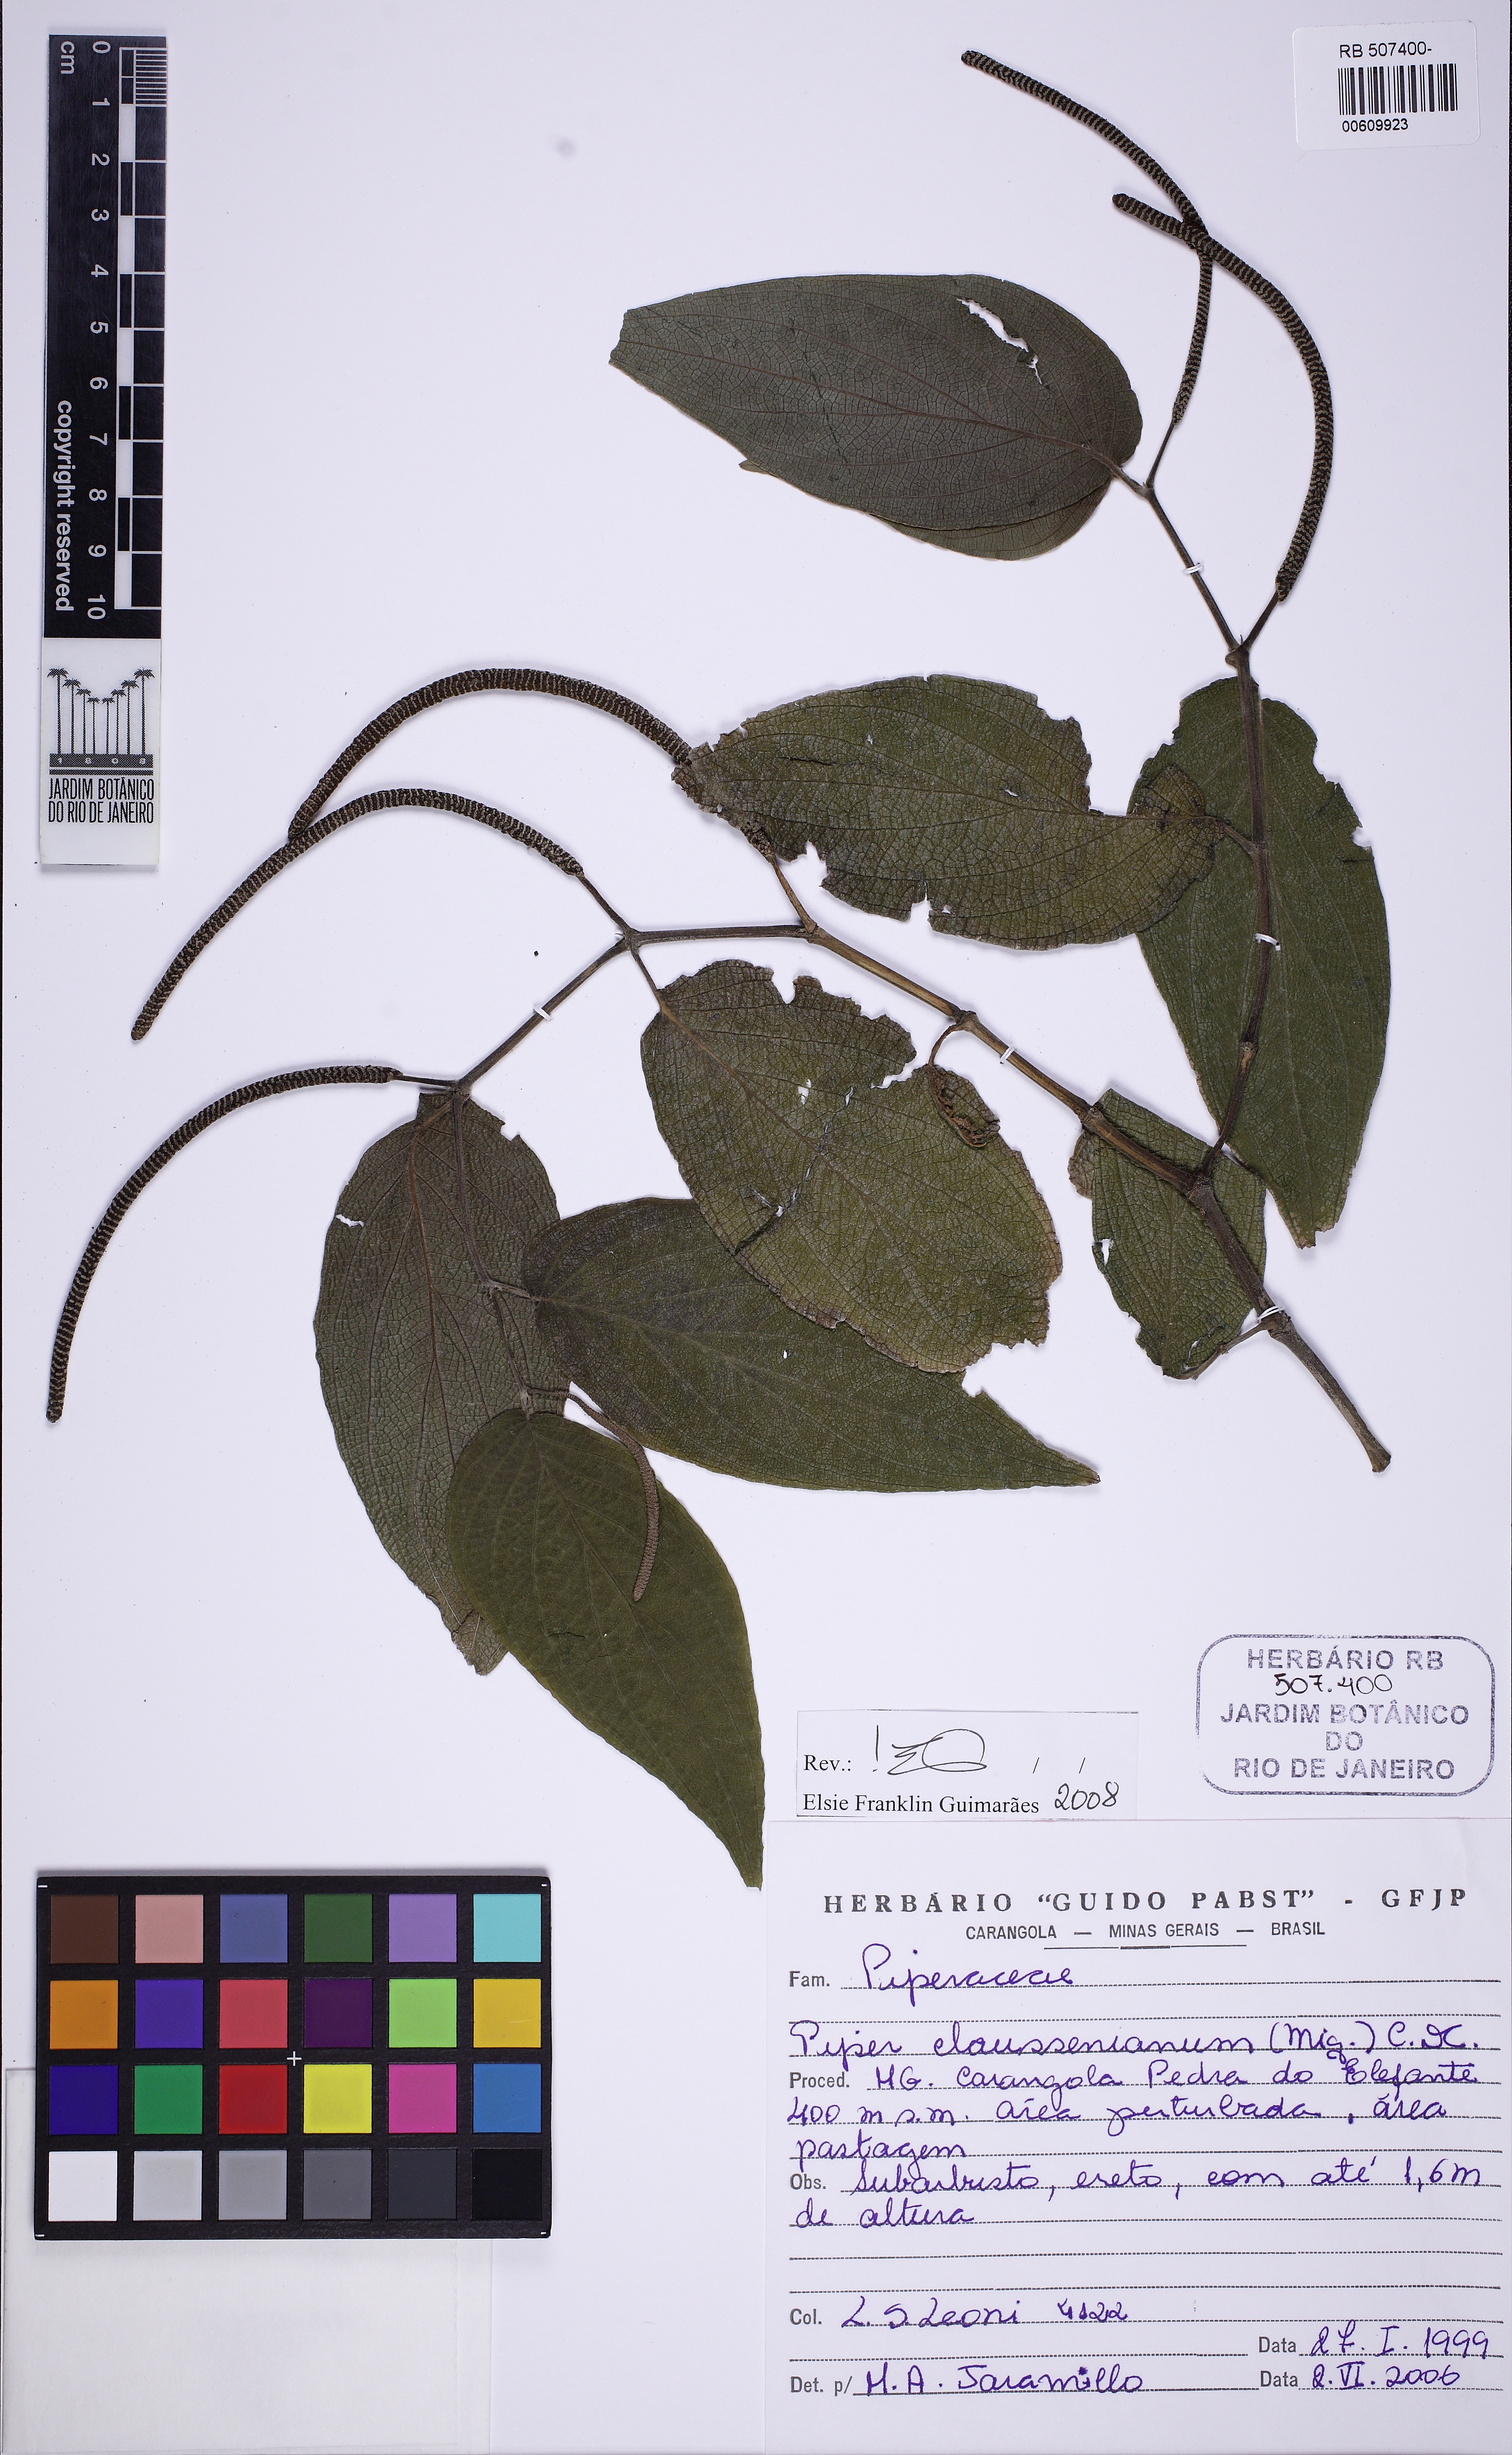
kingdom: Plantae
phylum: Tracheophyta
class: Magnoliopsida
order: Piperales
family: Piperaceae
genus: Piper
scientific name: Piper claussenianum
